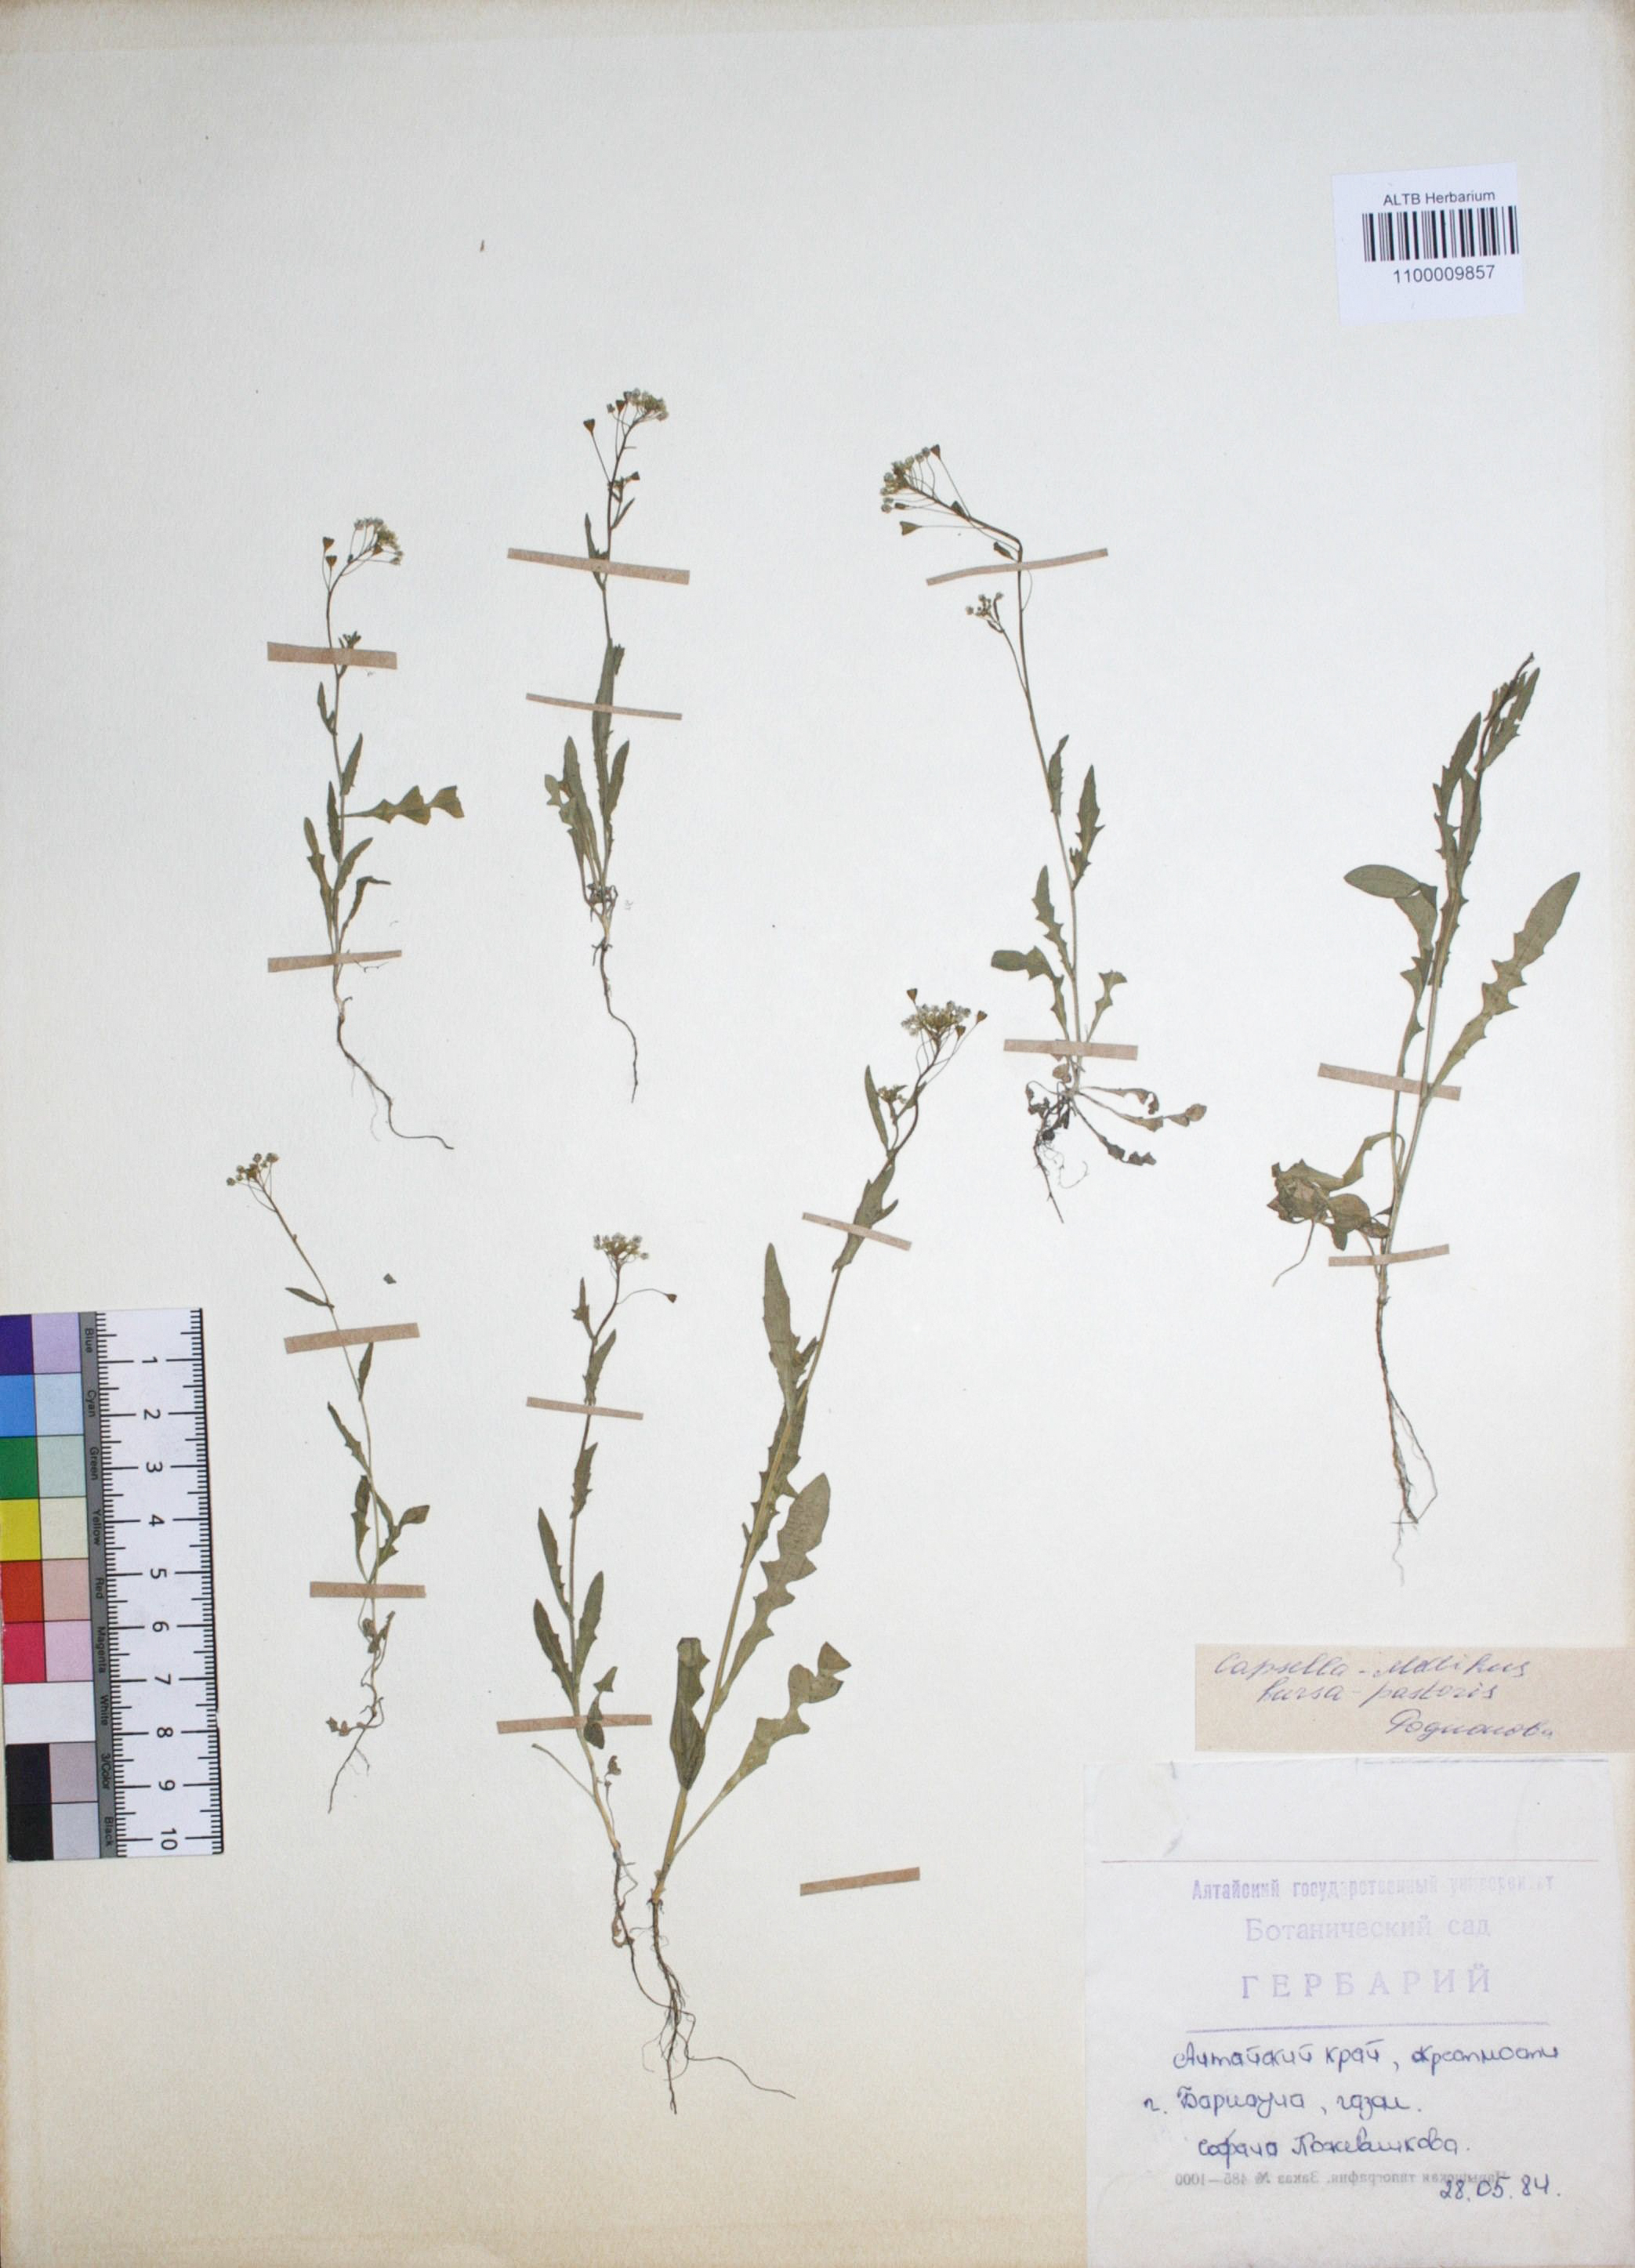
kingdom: Plantae
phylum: Tracheophyta
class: Magnoliopsida
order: Brassicales
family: Brassicaceae
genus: Capsella
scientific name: Capsella bursa-pastoris
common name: Shepherd's purse
